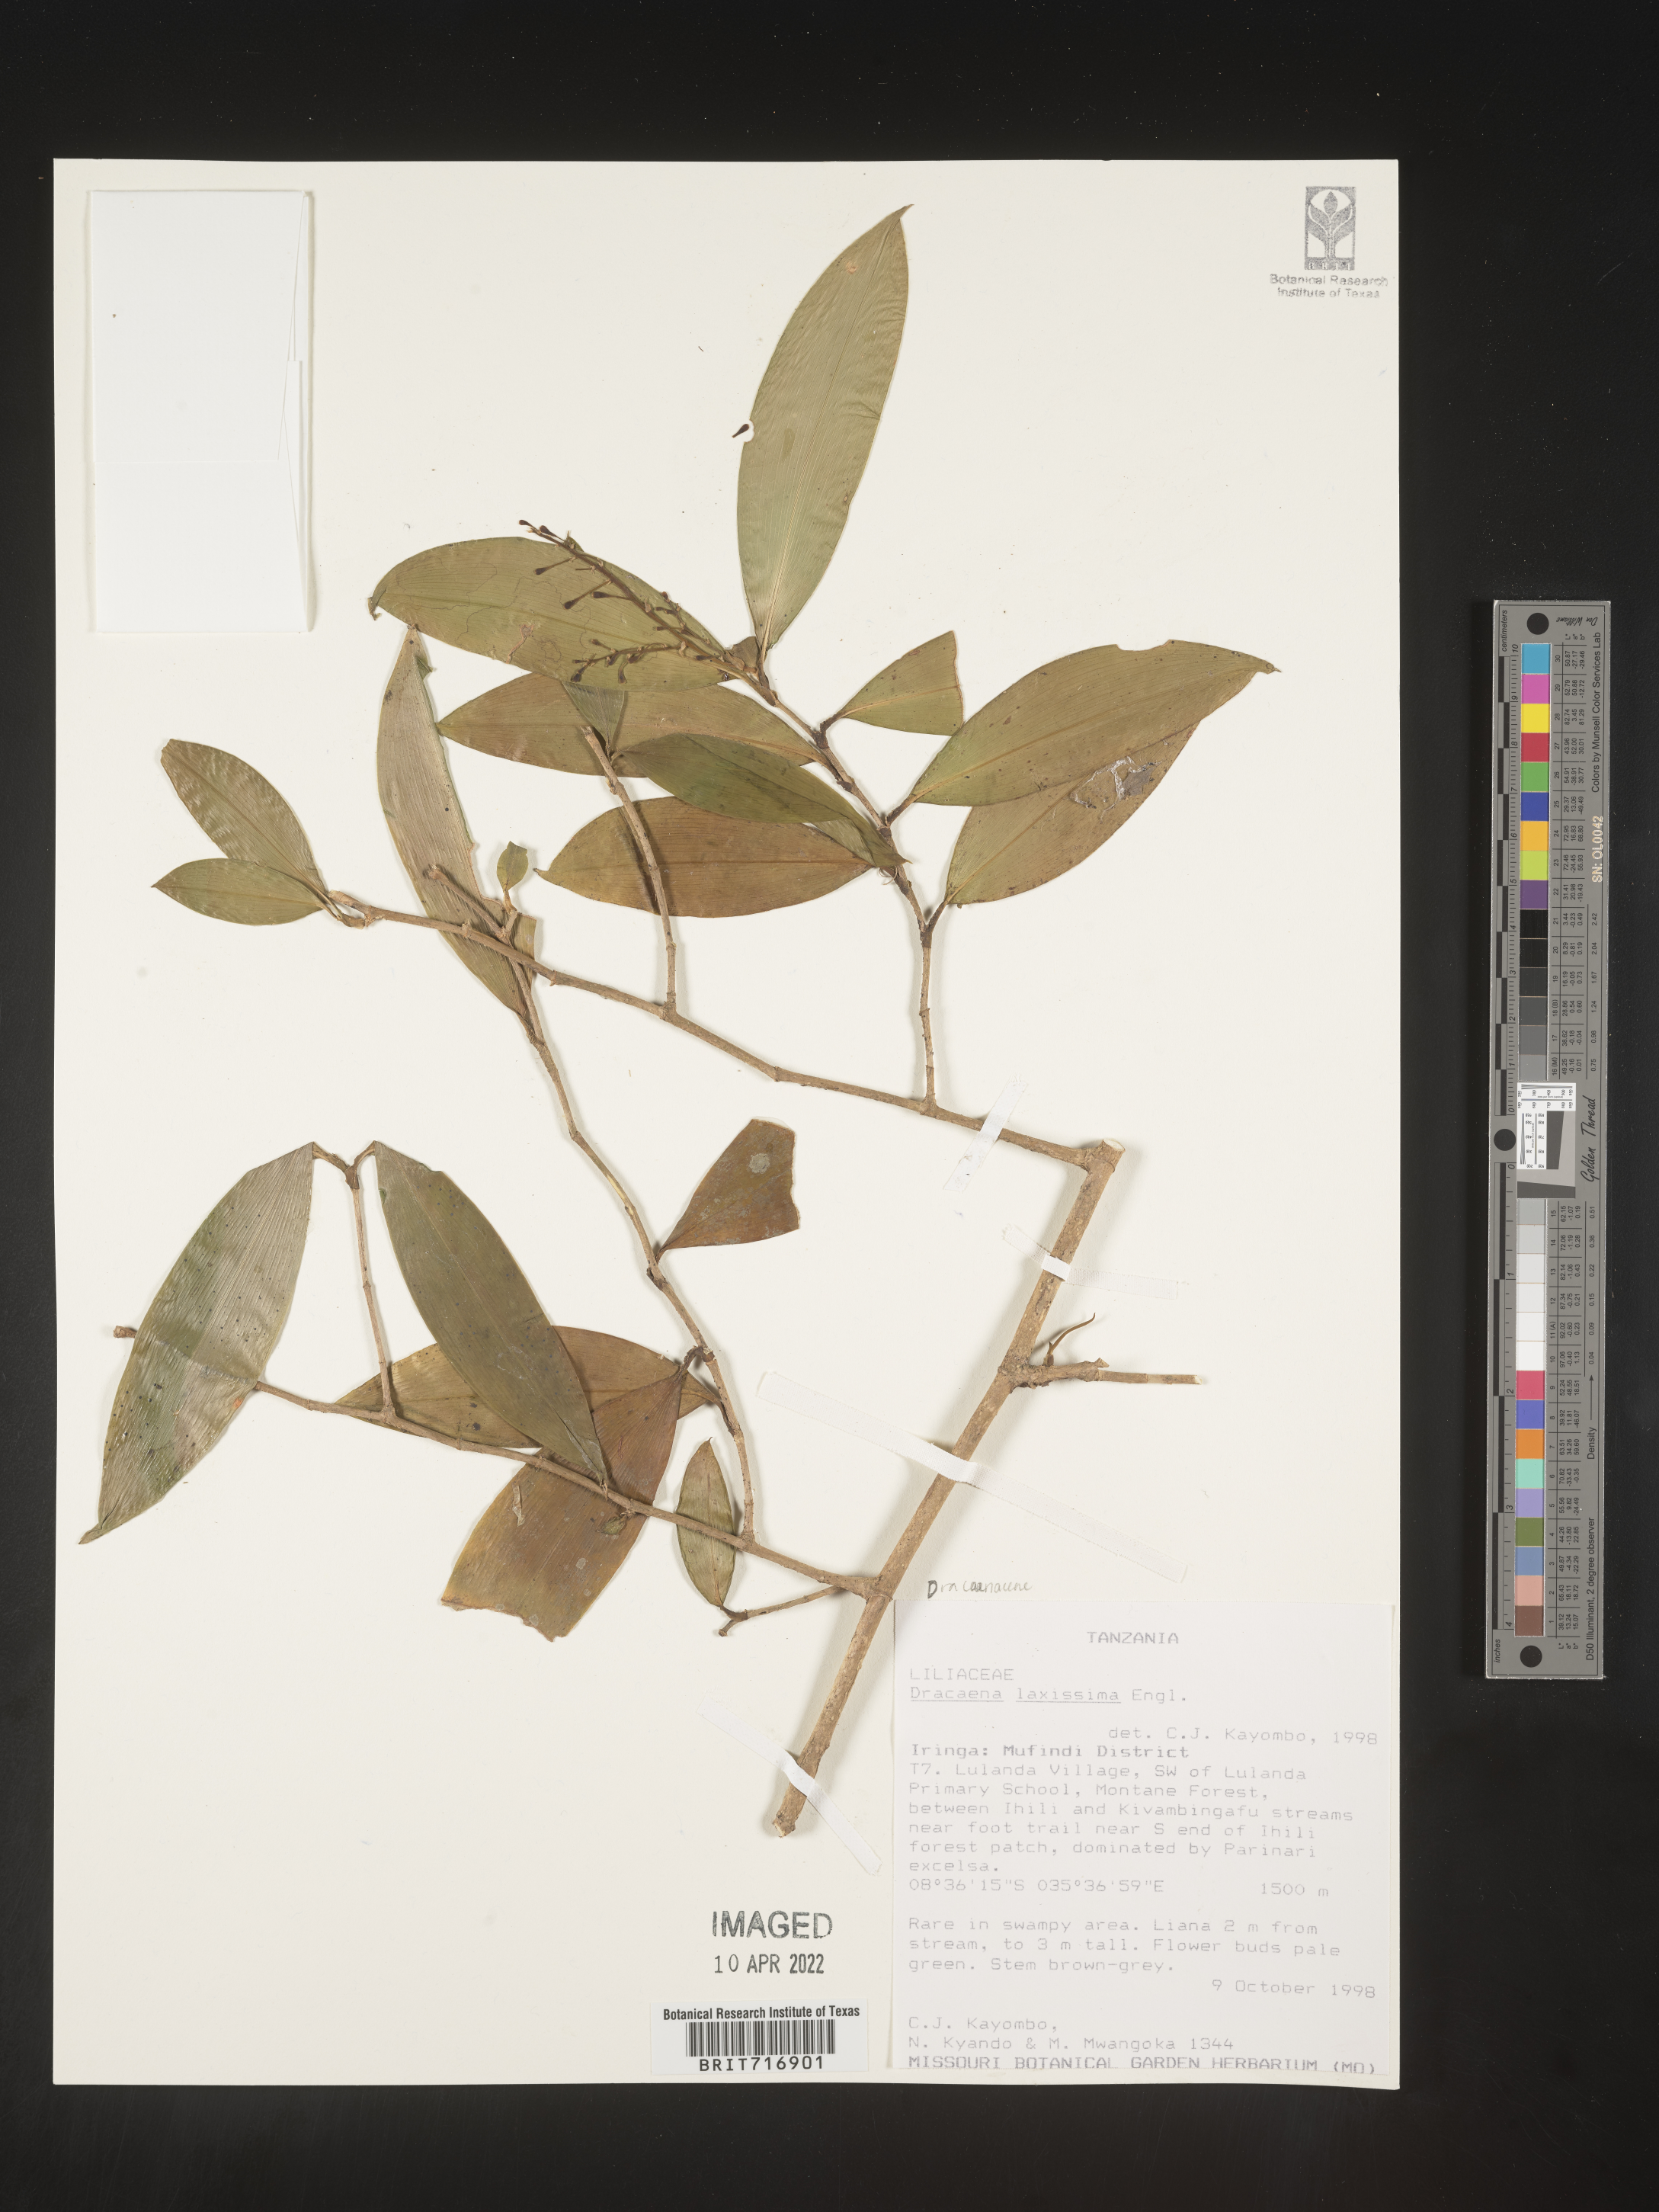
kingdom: Plantae
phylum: Tracheophyta
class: Liliopsida
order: Asparagales
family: Asparagaceae
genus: Dracaena
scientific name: Dracaena
